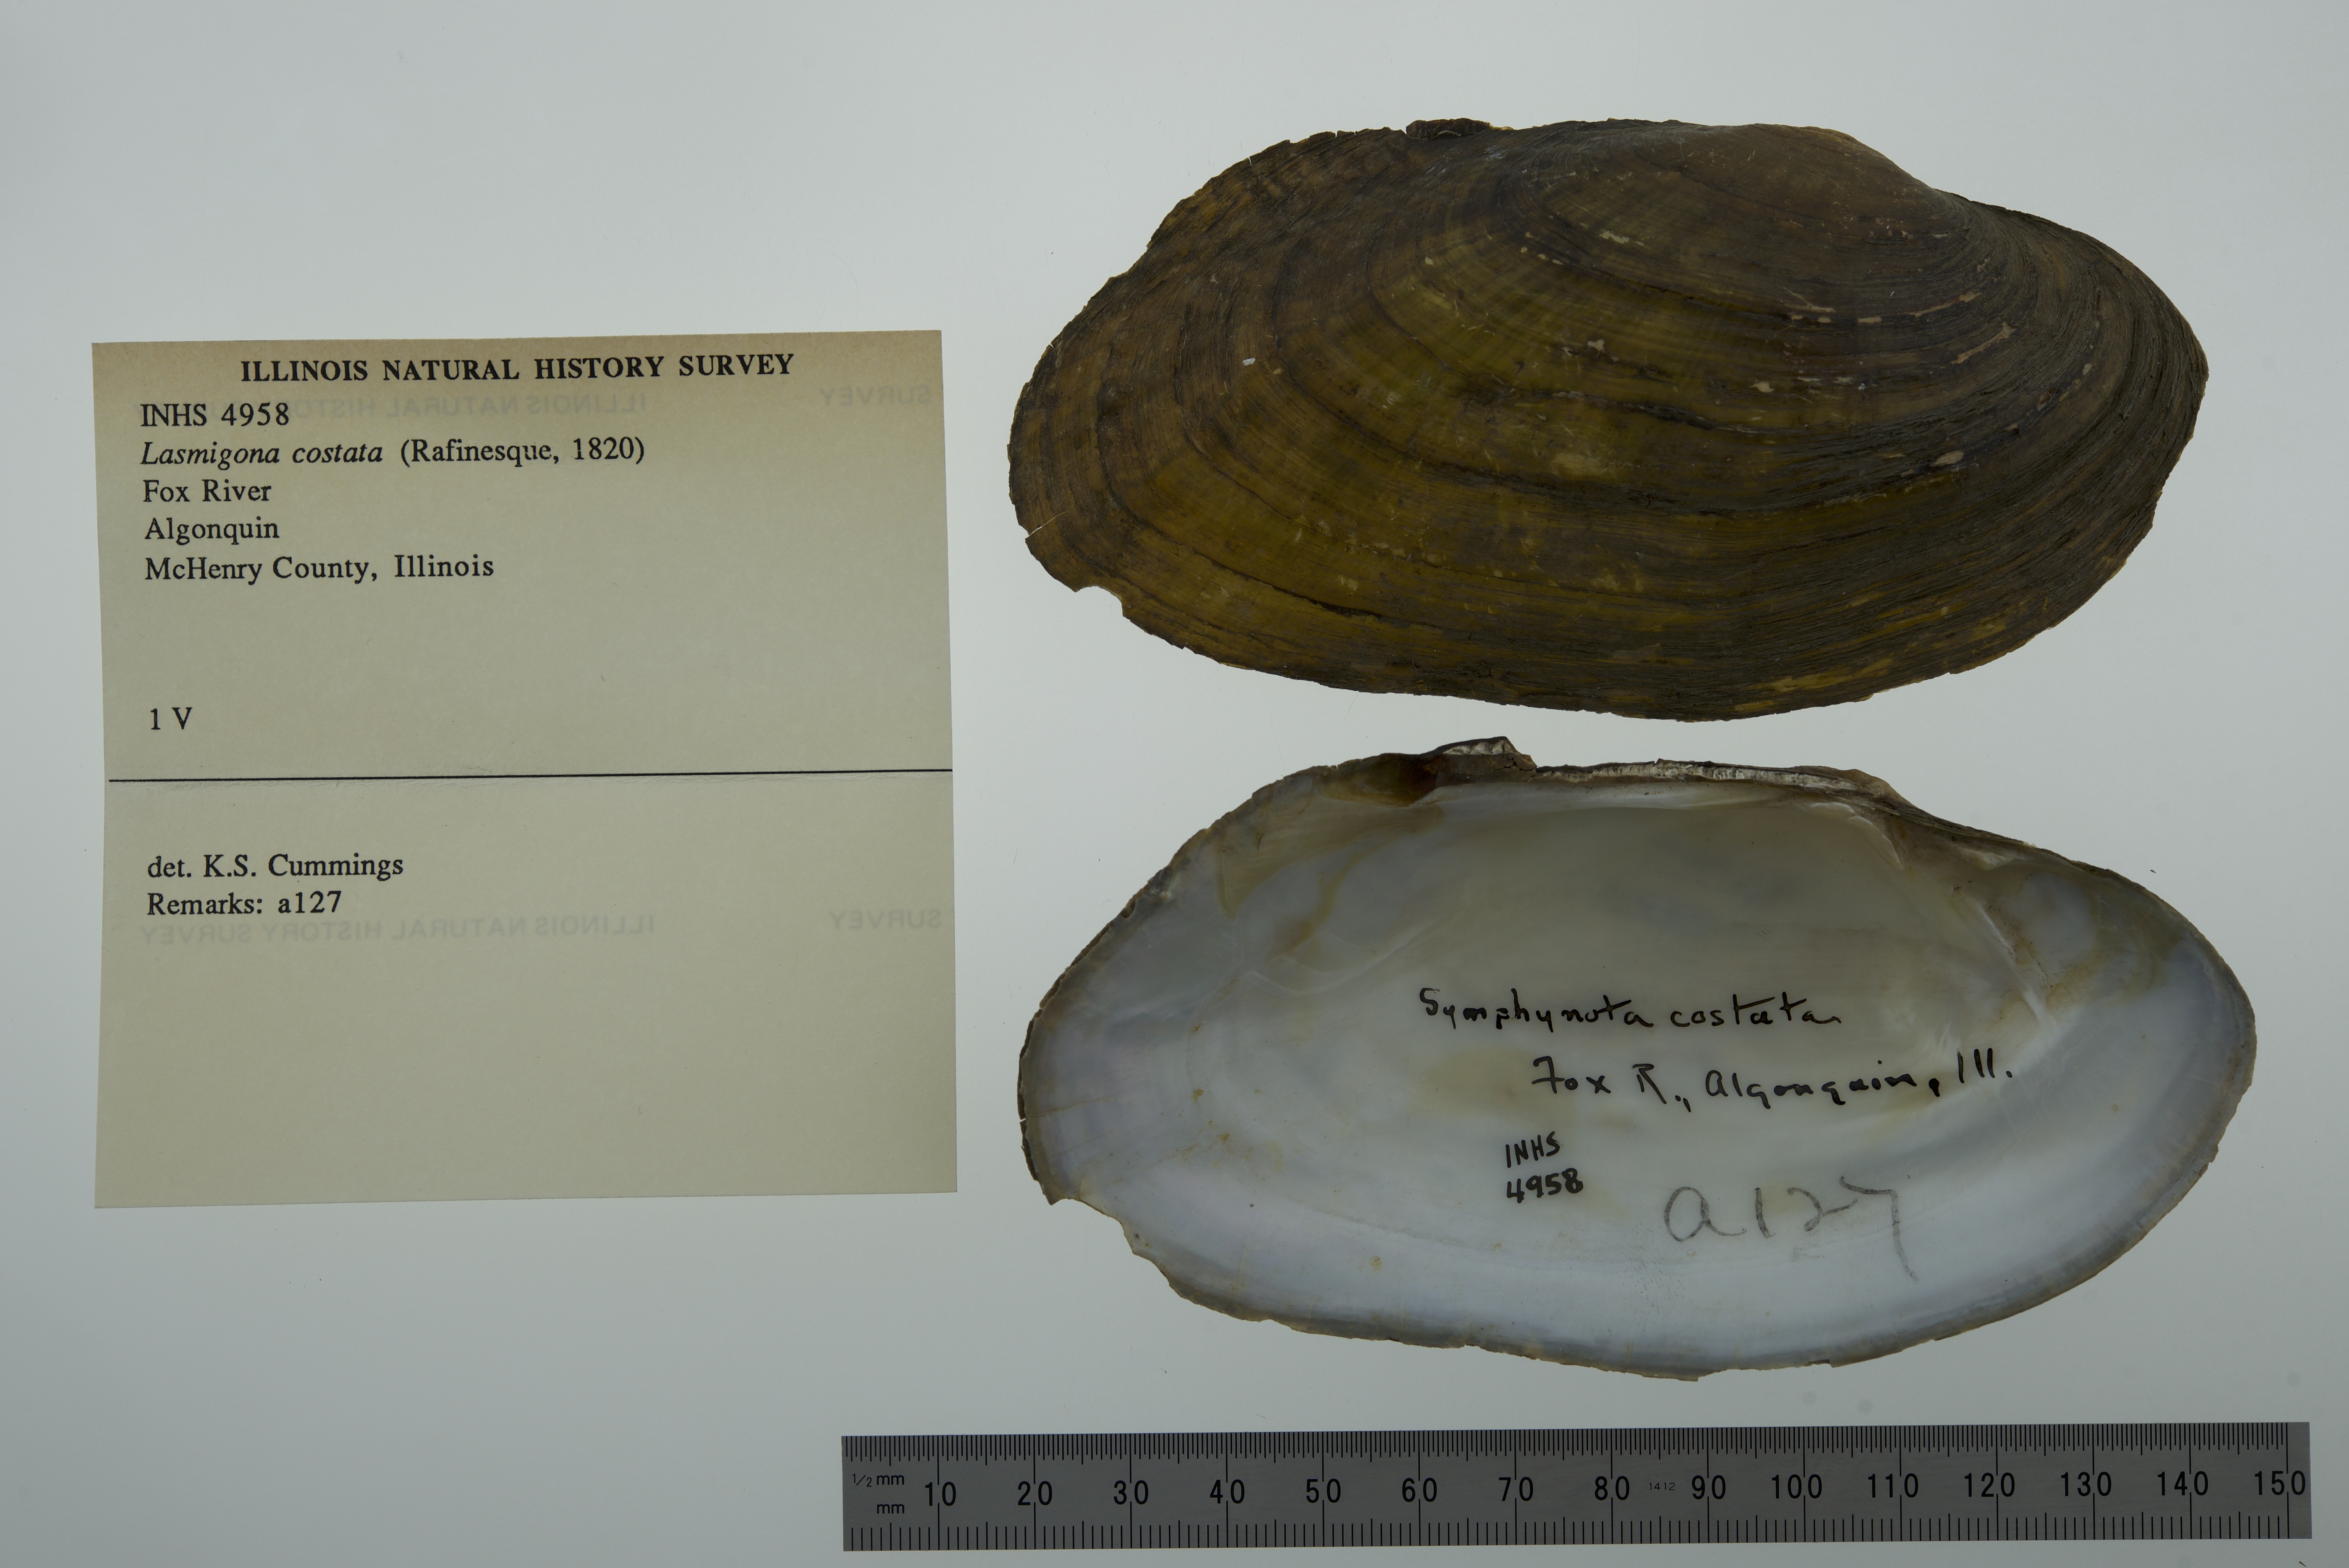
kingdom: Animalia
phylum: Mollusca
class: Bivalvia
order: Unionida
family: Unionidae
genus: Lasmigona
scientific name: Lasmigona costata
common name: Flutedshell
